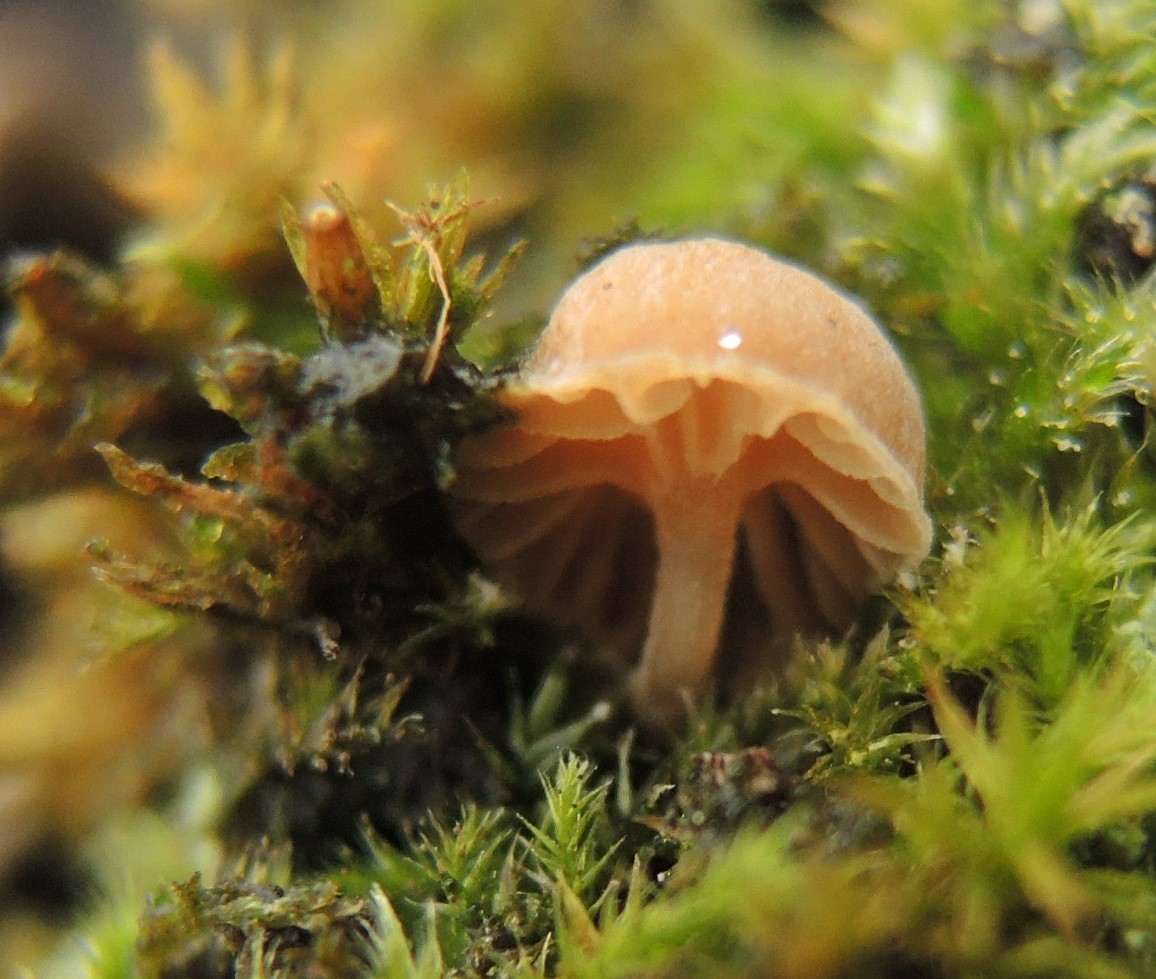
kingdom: Fungi
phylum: Basidiomycota
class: Agaricomycetes
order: Agaricales
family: Porotheleaceae
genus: Phloeomana
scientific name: Phloeomana clavata
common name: brunbladet huesvamp
